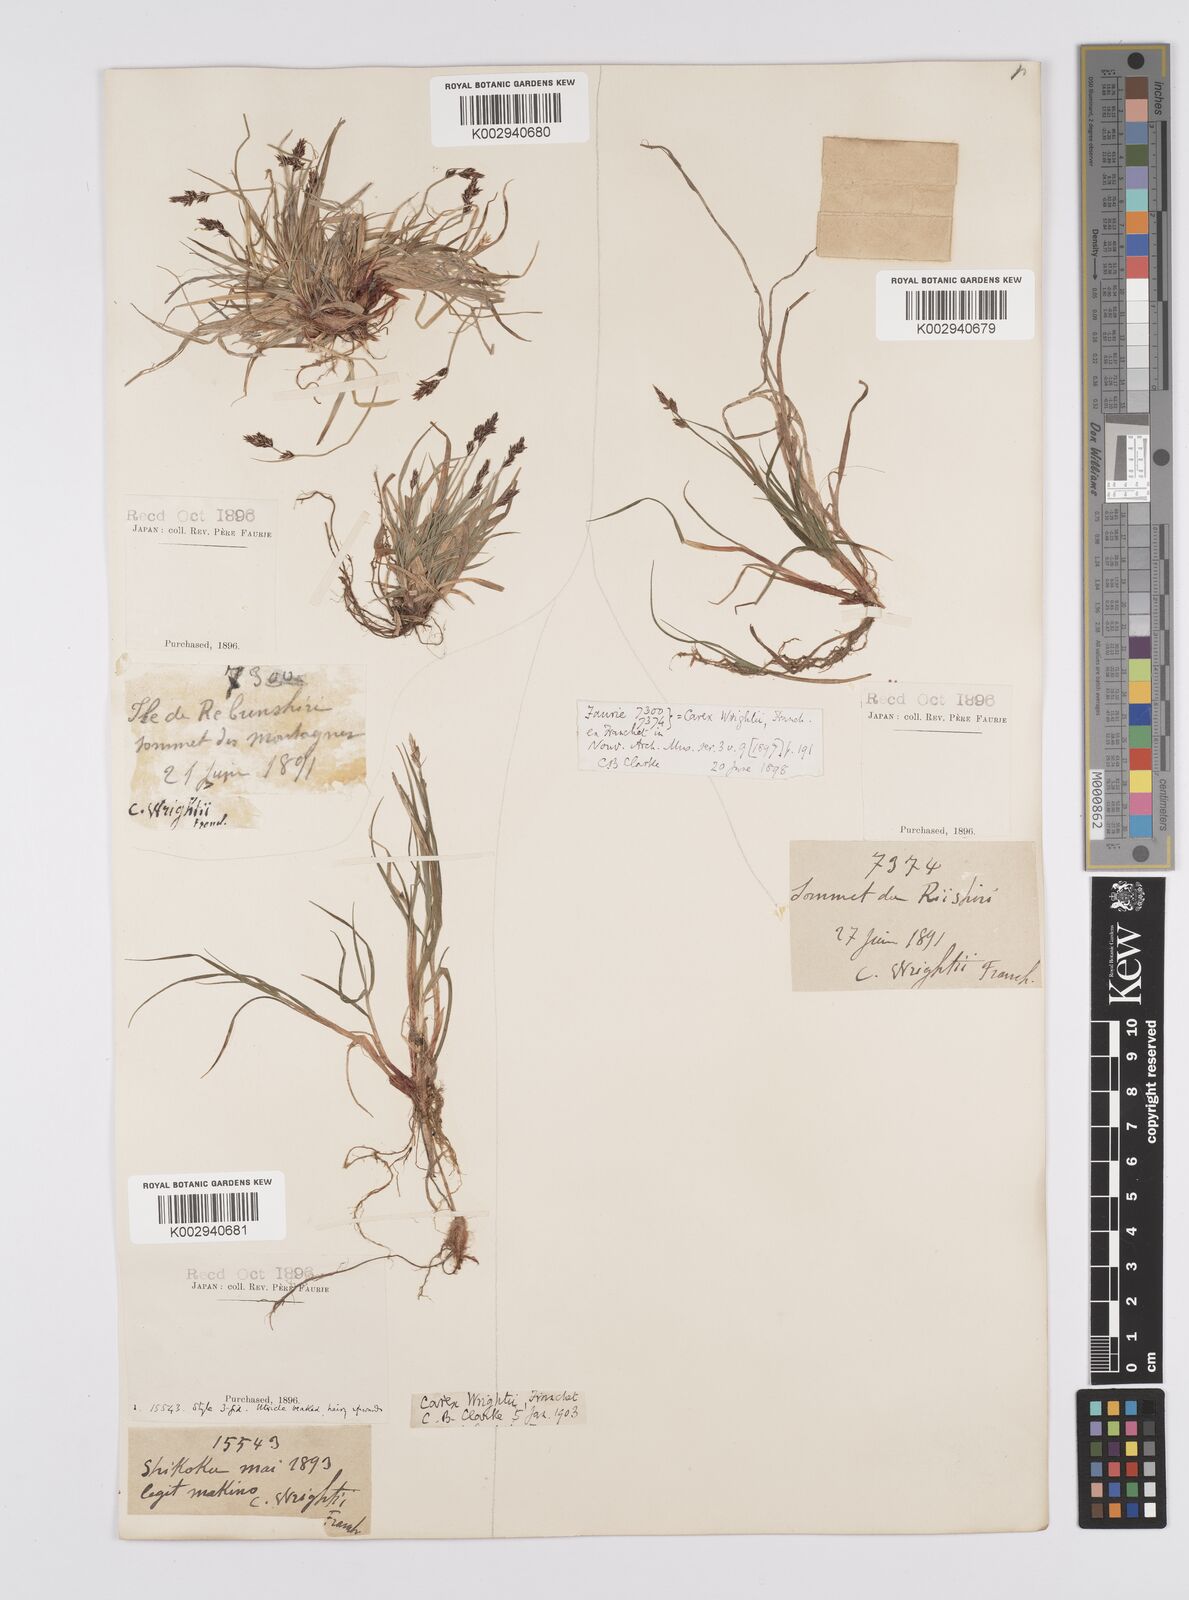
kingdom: Plantae
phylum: Tracheophyta
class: Liliopsida
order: Poales
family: Cyperaceae
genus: Carex
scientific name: Carex oxyandra
